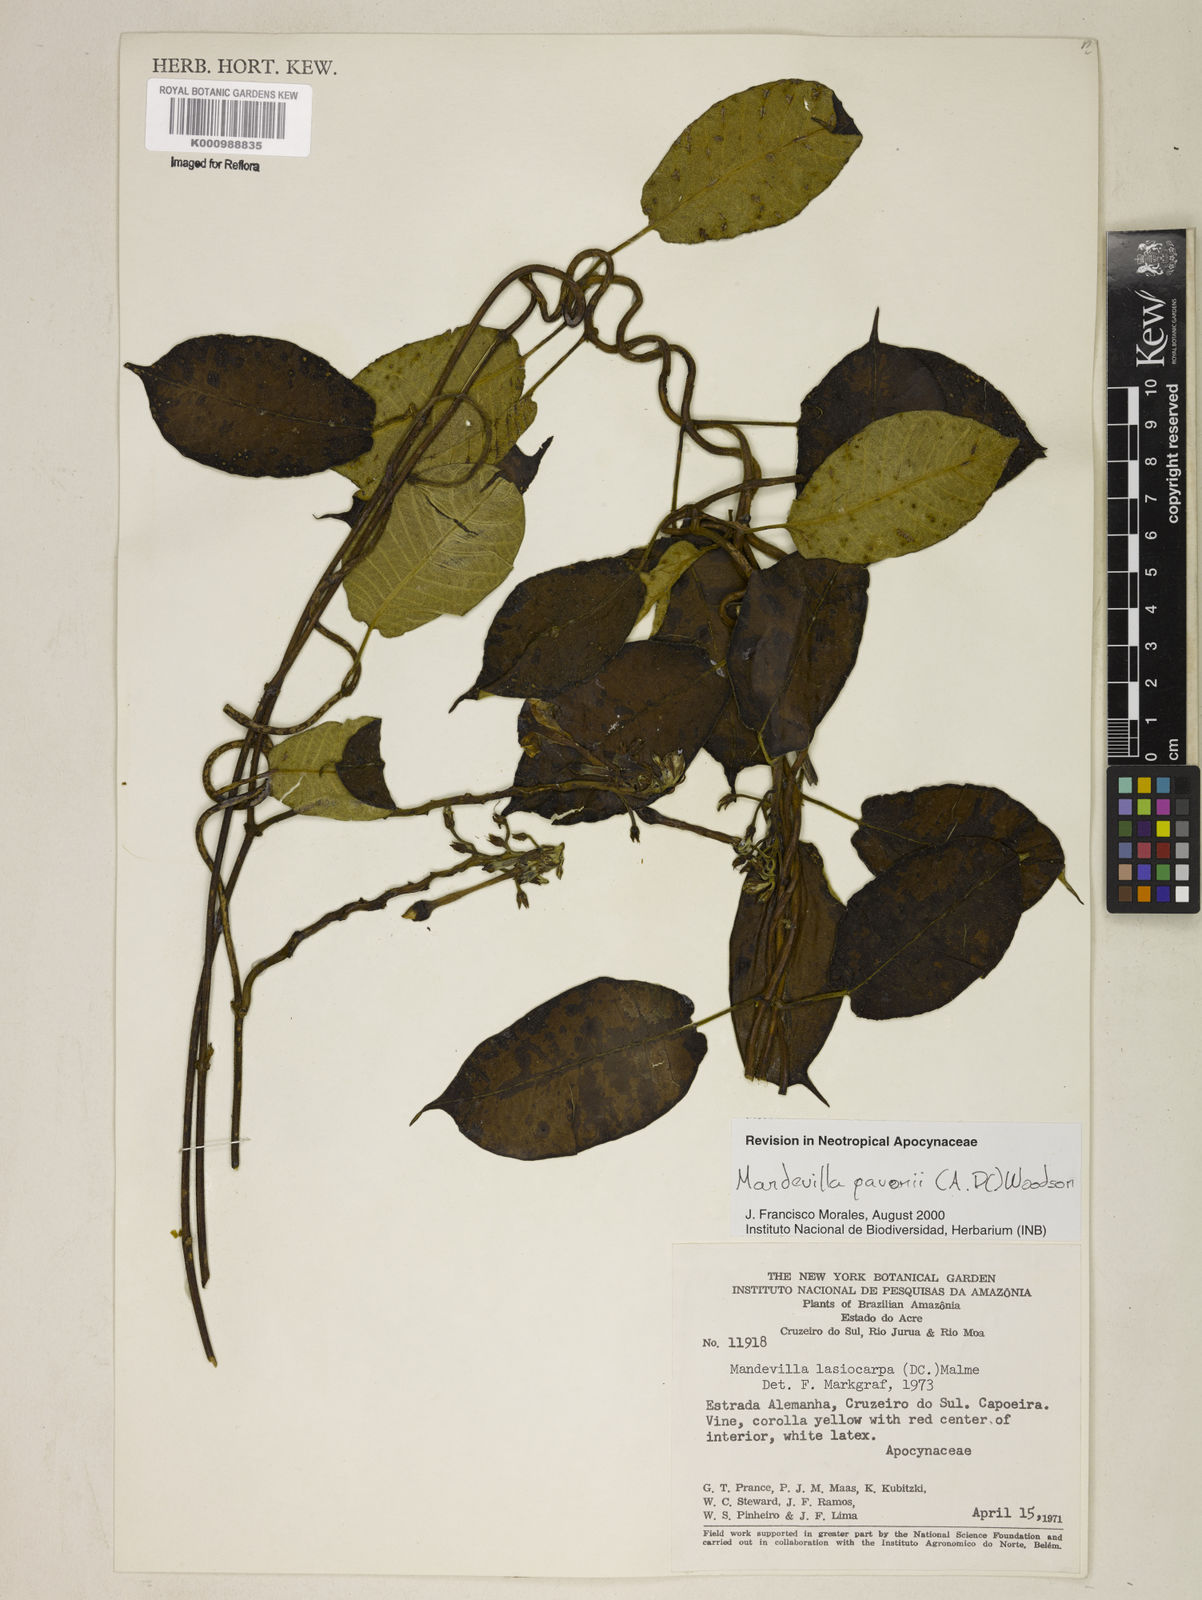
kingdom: Plantae
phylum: Tracheophyta
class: Magnoliopsida
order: Gentianales
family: Apocynaceae
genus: Mandevilla
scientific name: Mandevilla pavonii
